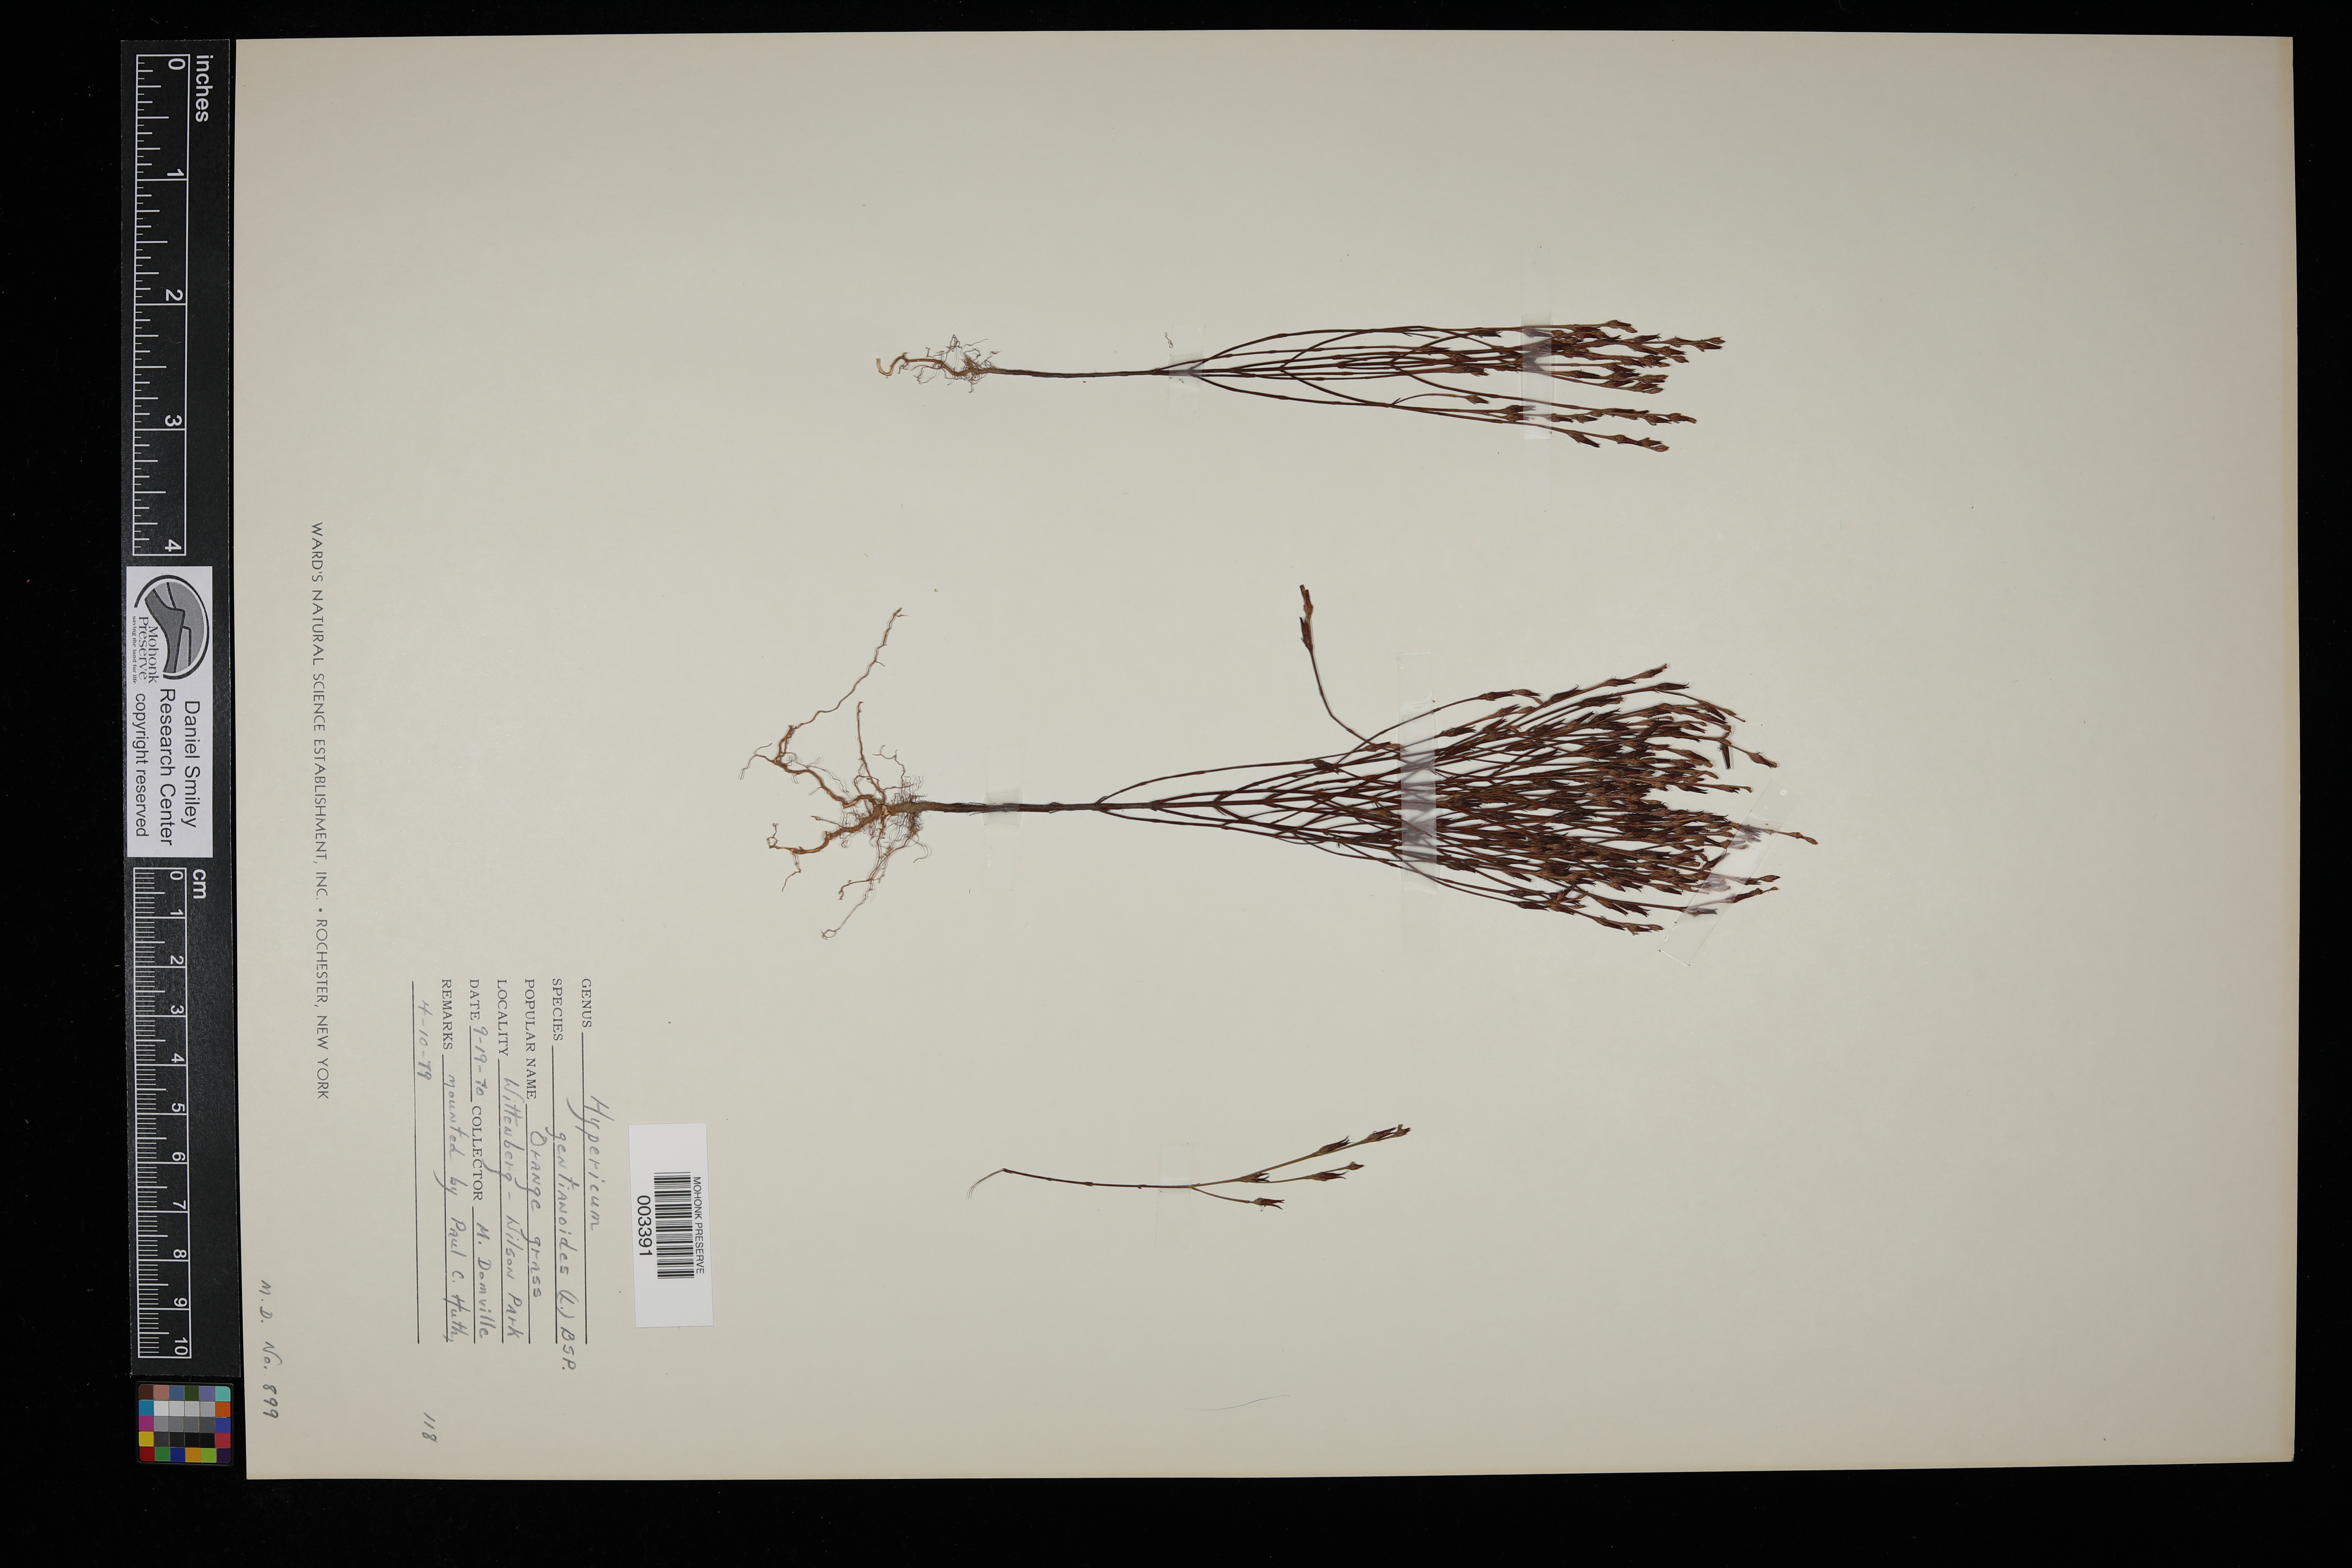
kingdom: Plantae
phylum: Tracheophyta
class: Magnoliopsida
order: Malpighiales
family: Hypericaceae
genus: Hypericum
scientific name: Hypericum gentianoides
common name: Gentian-leaved st. john's-wort
